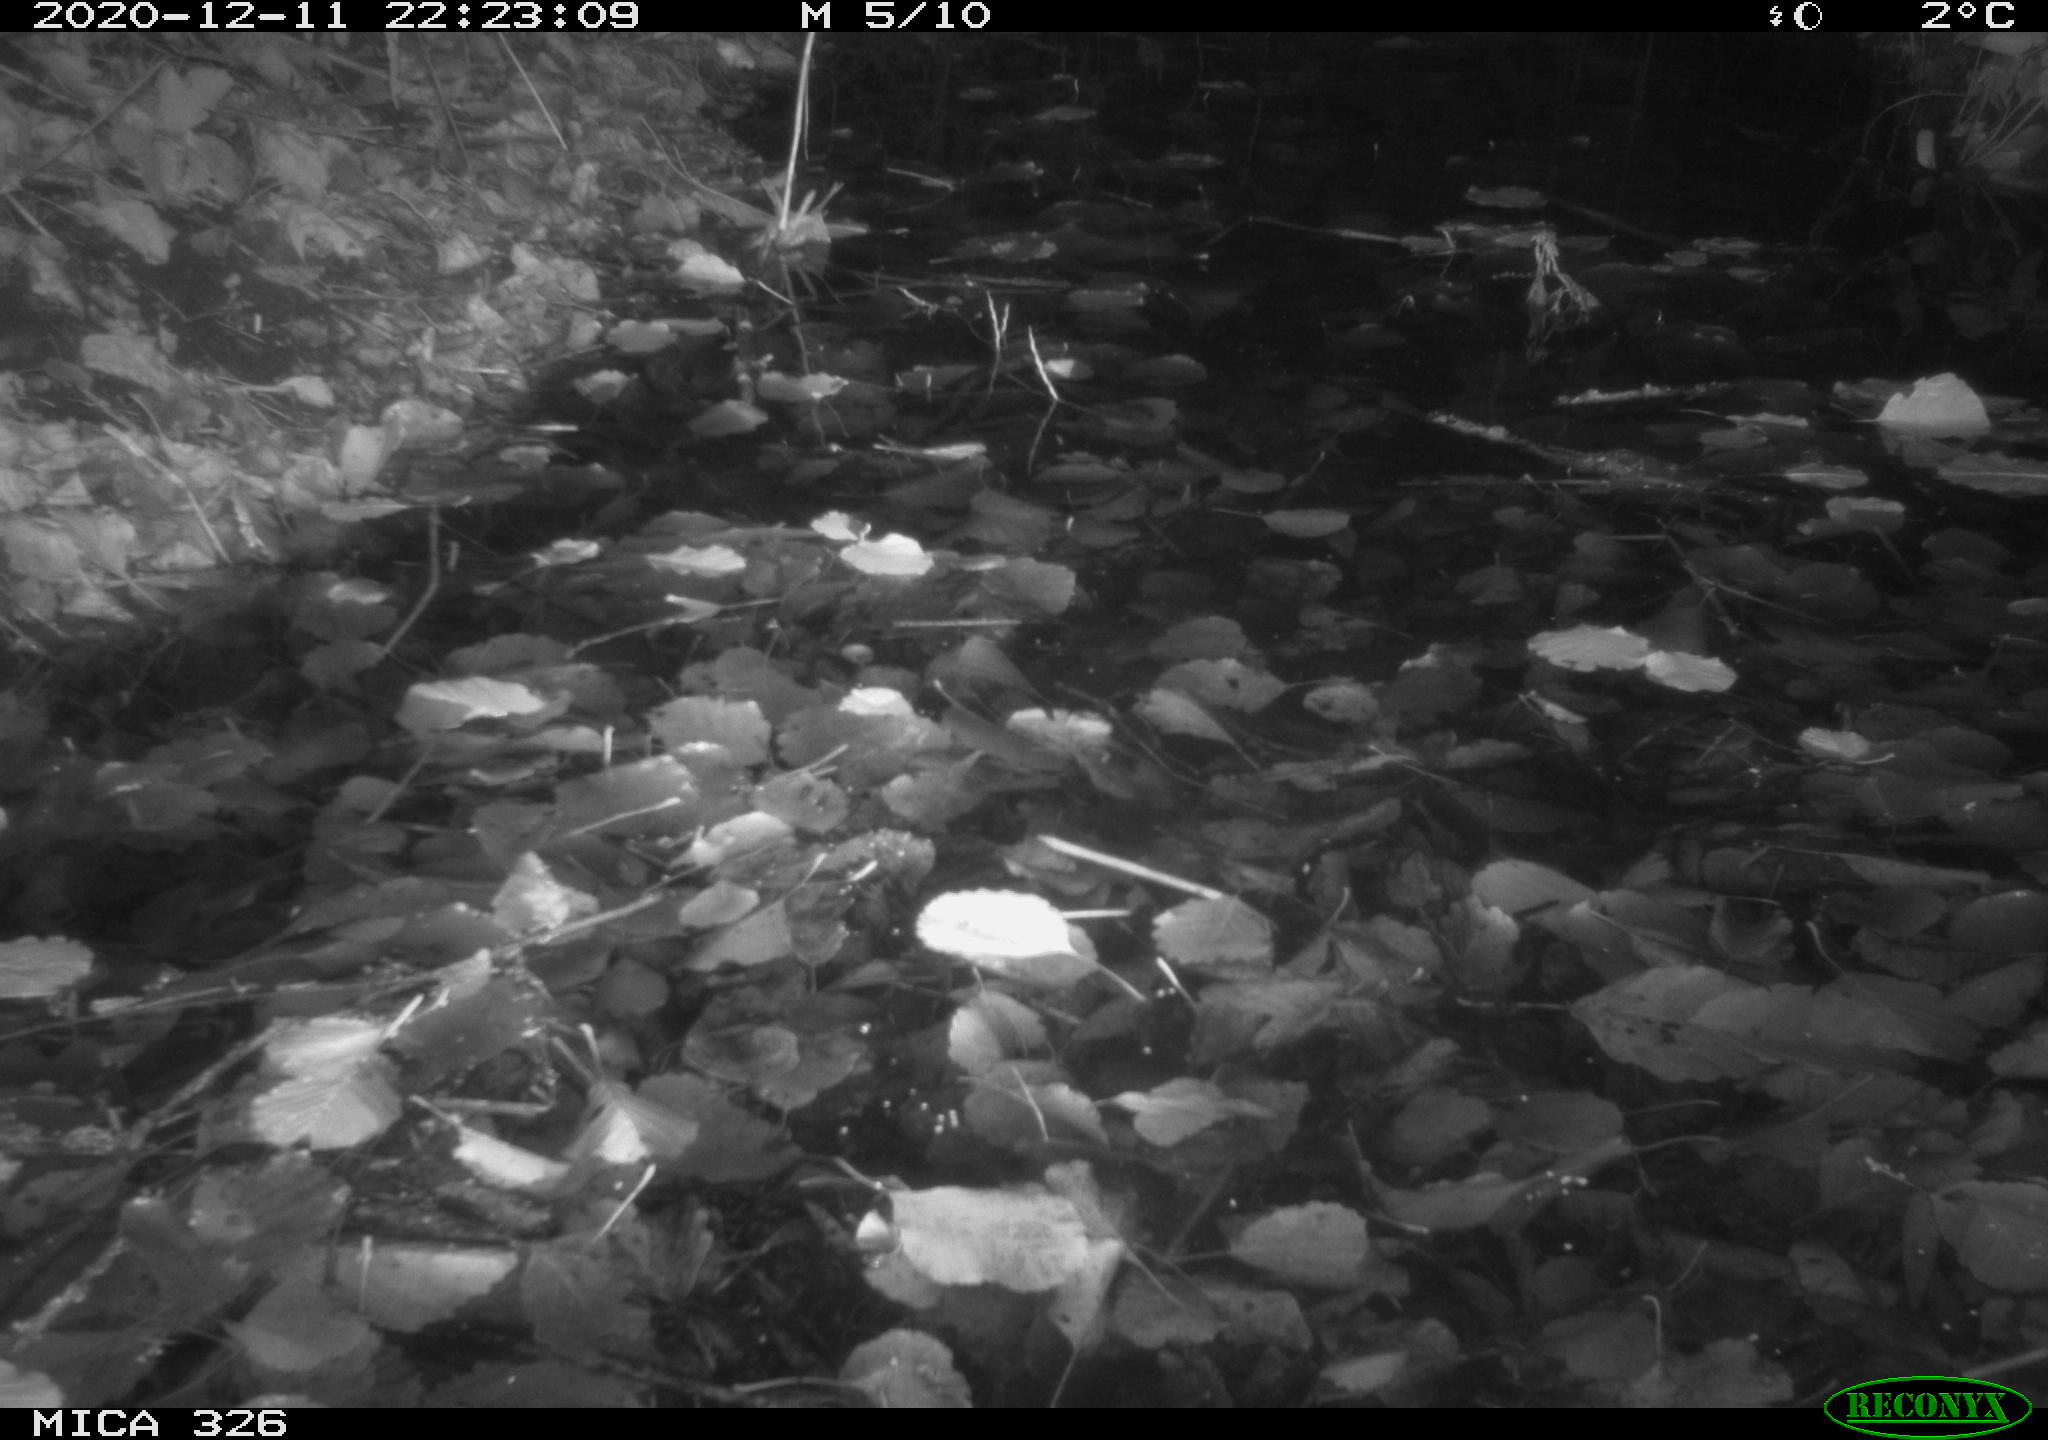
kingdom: Animalia
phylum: Chordata
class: Mammalia
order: Rodentia
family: Cricetidae
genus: Ondatra
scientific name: Ondatra zibethicus
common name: Muskrat
